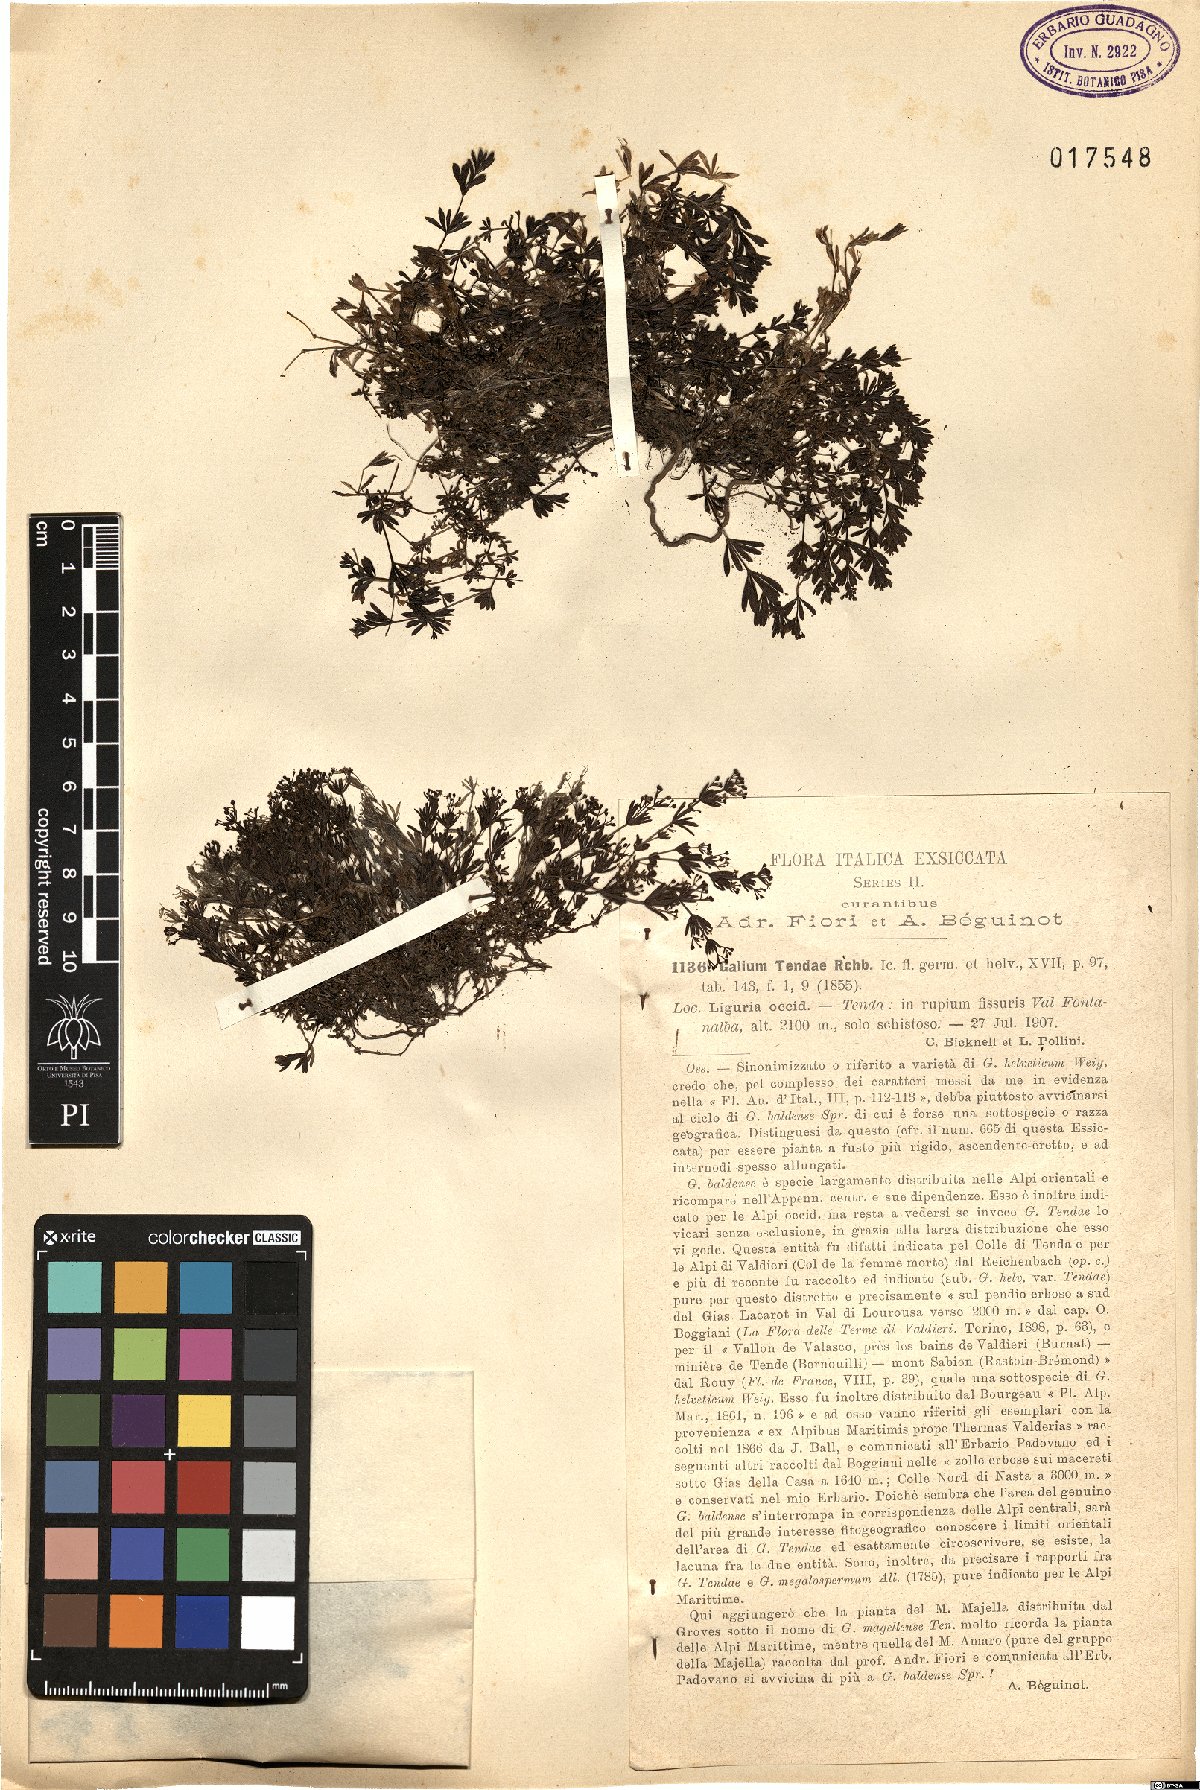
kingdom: Plantae
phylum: Tracheophyta
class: Magnoliopsida
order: Gentianales
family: Rubiaceae
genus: Galium
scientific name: Galium tendae
